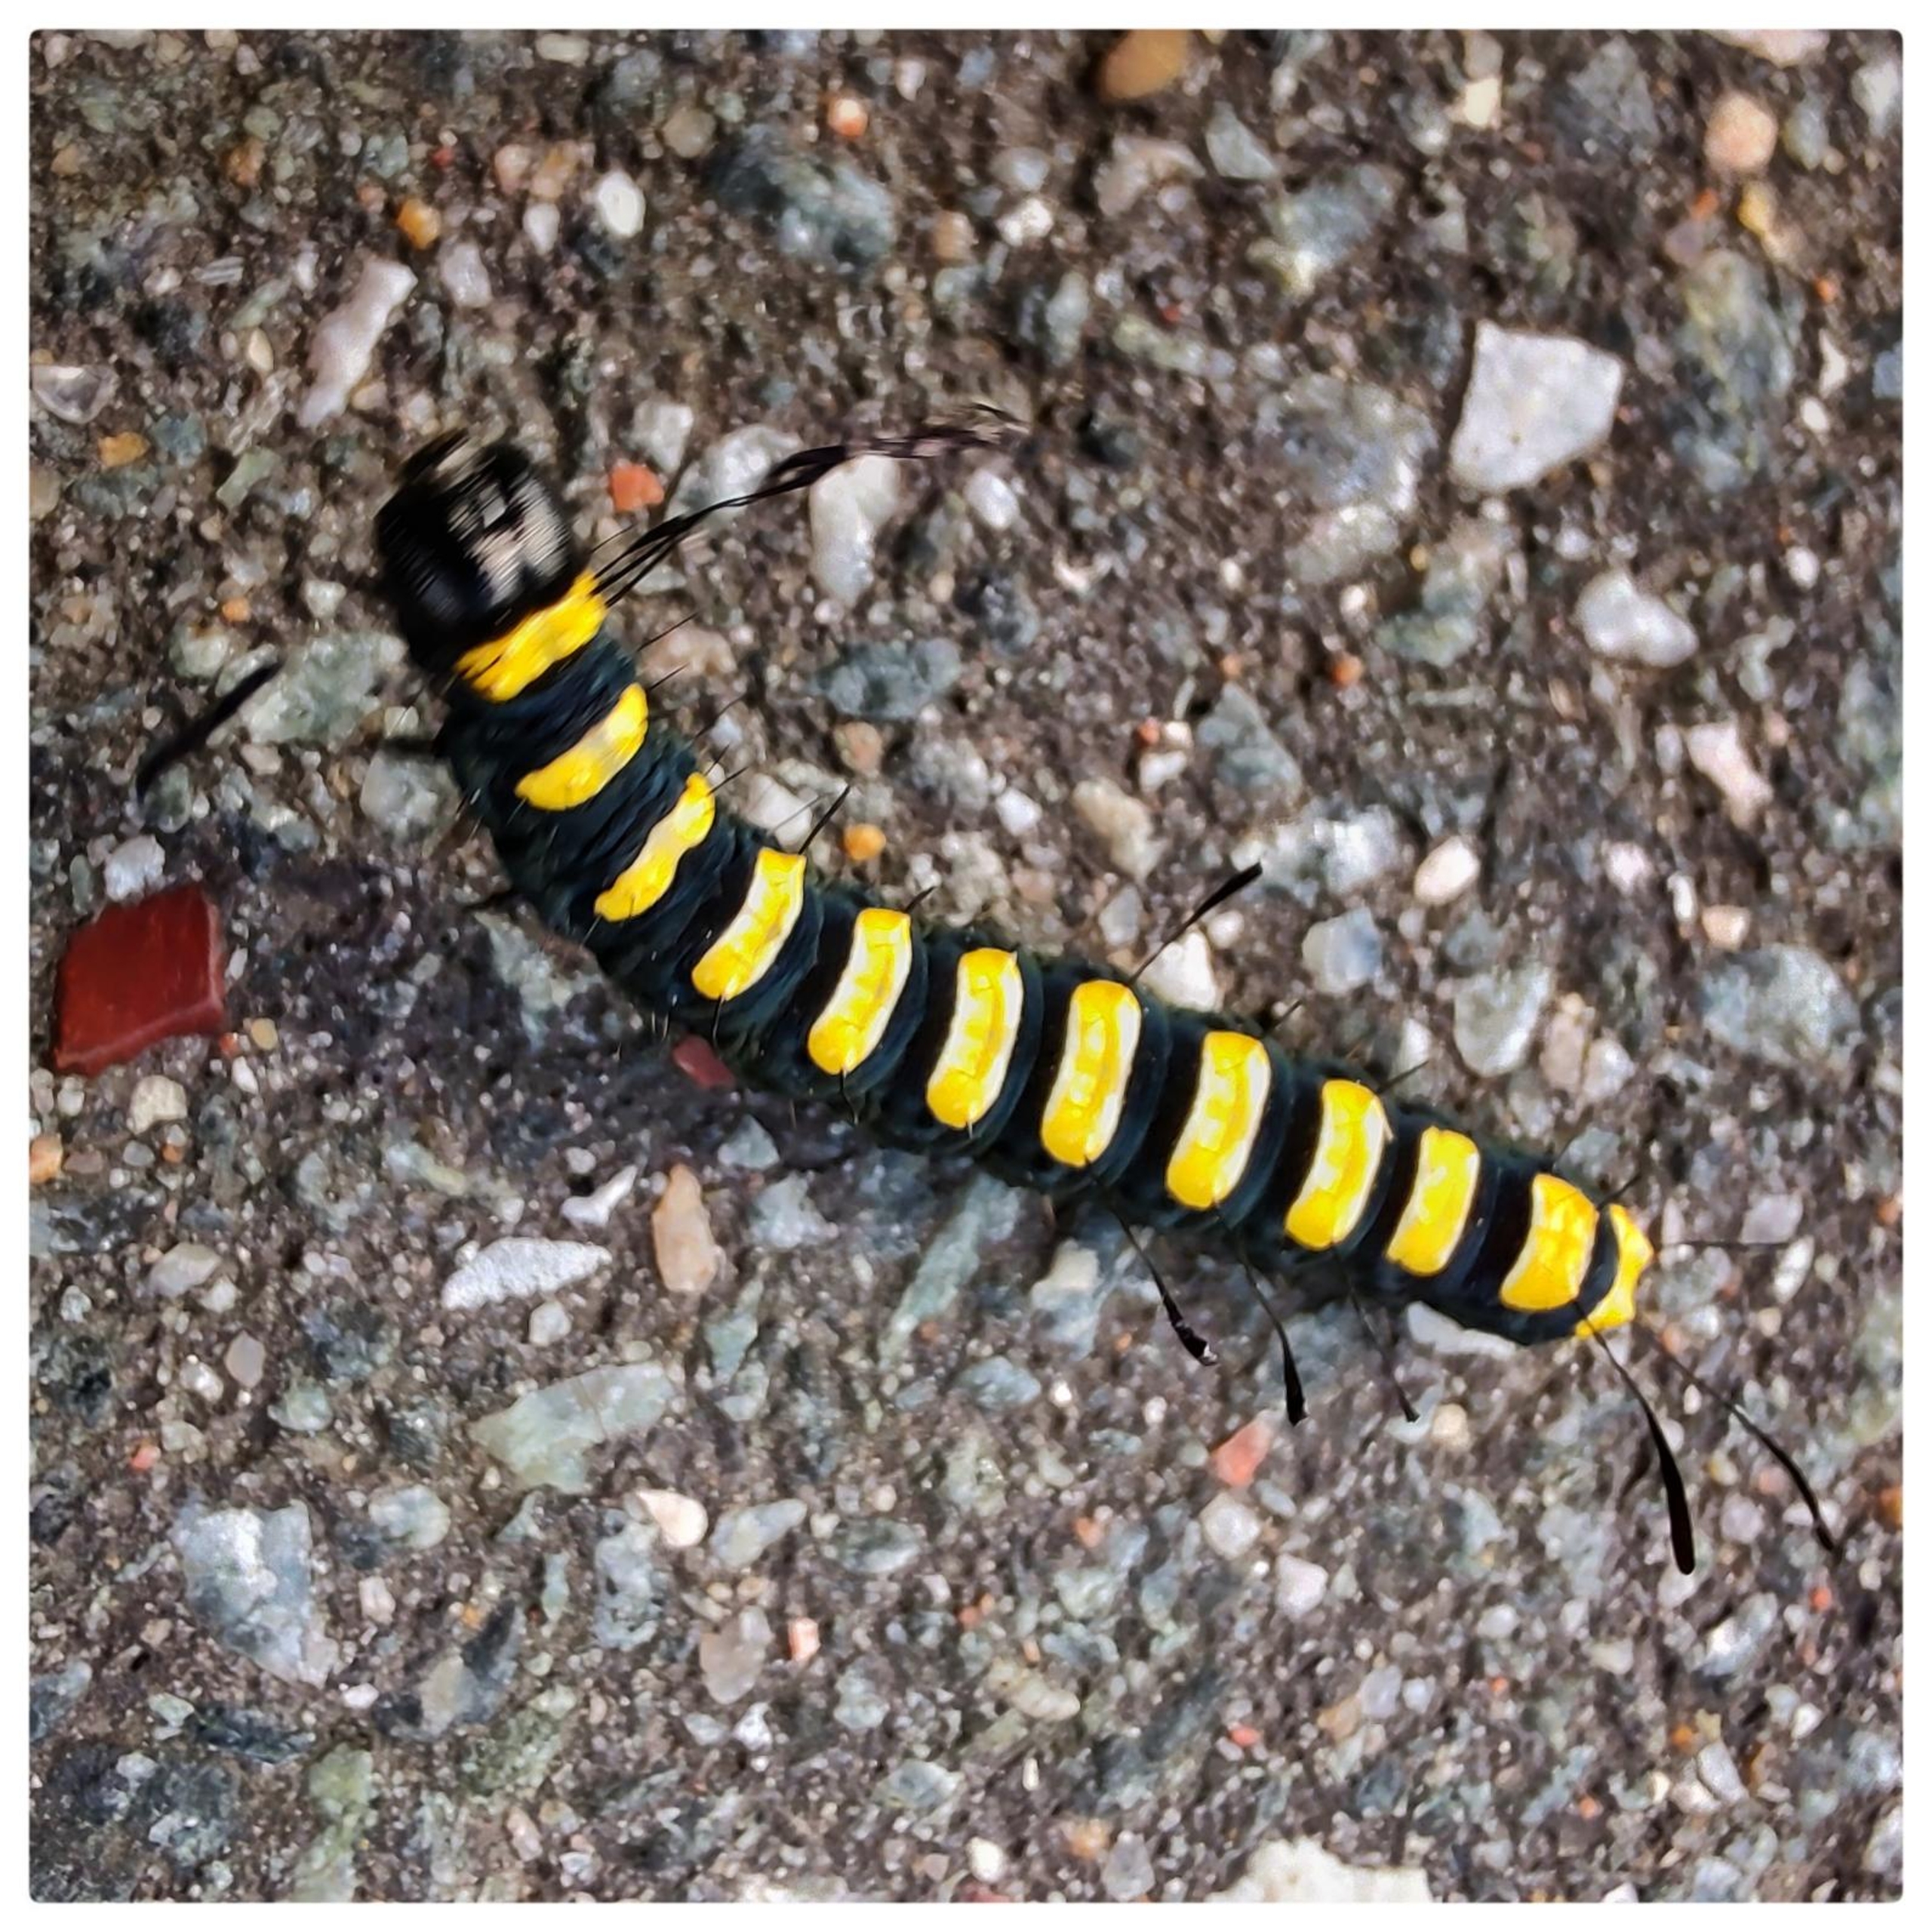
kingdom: Animalia
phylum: Arthropoda
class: Insecta
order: Lepidoptera
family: Noctuidae
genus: Acronicta
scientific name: Acronicta alni
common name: Kølleugle
